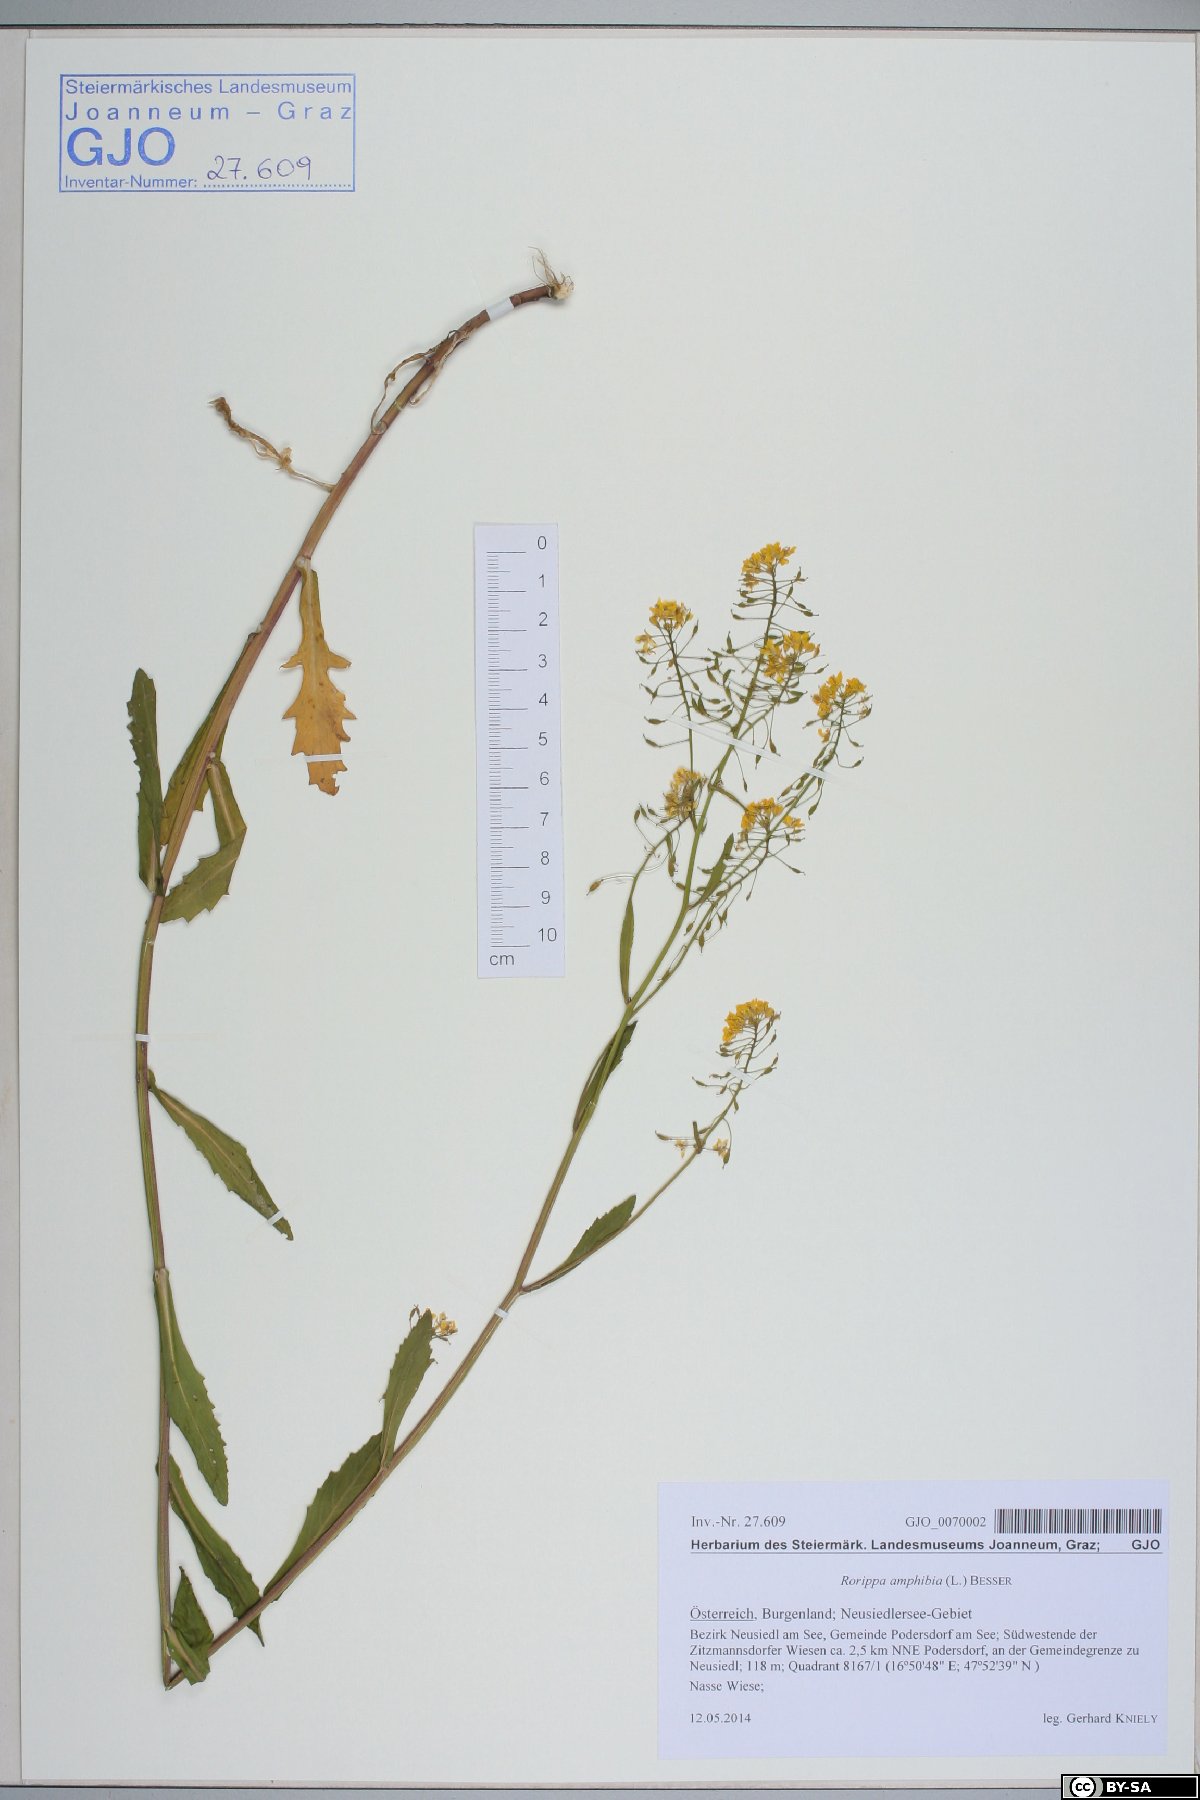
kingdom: Plantae
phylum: Tracheophyta
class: Magnoliopsida
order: Brassicales
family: Brassicaceae
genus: Rorippa
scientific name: Rorippa amphibia
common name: Great yellow-cress
